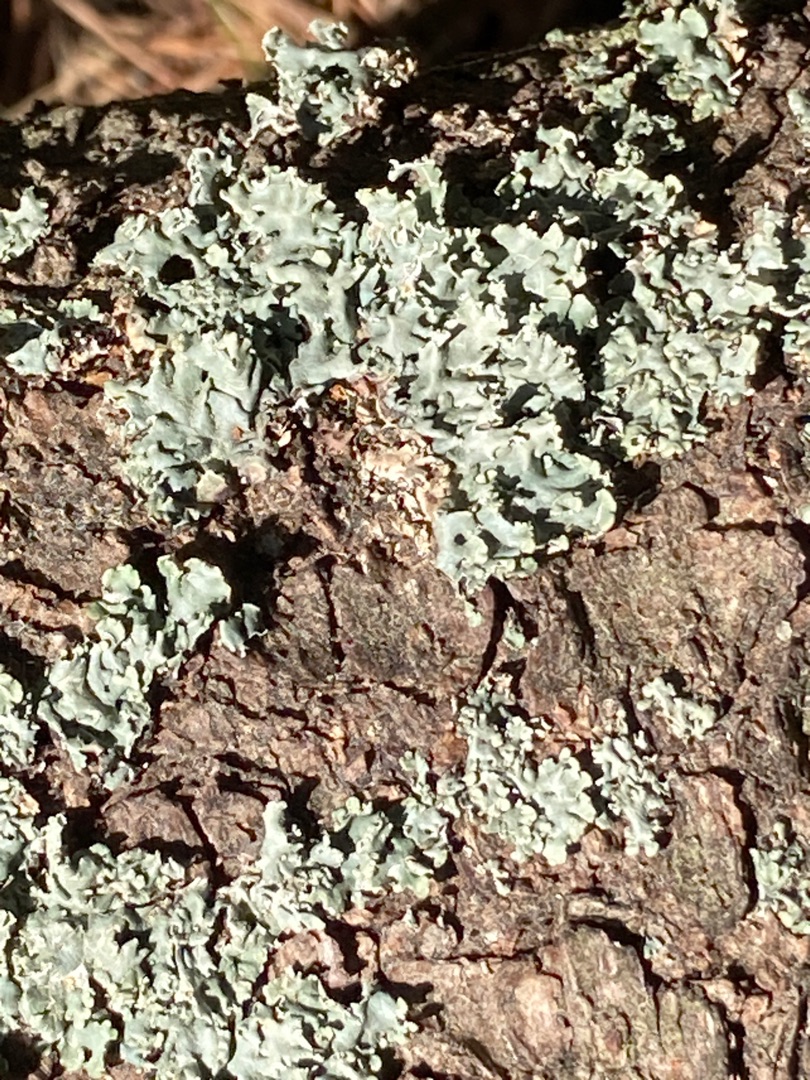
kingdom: Fungi
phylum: Ascomycota
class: Lecanoromycetes
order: Lecanorales
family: Parmeliaceae
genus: Hypogymnia
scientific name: Hypogymnia physodes
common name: Almindelig kvistlav
